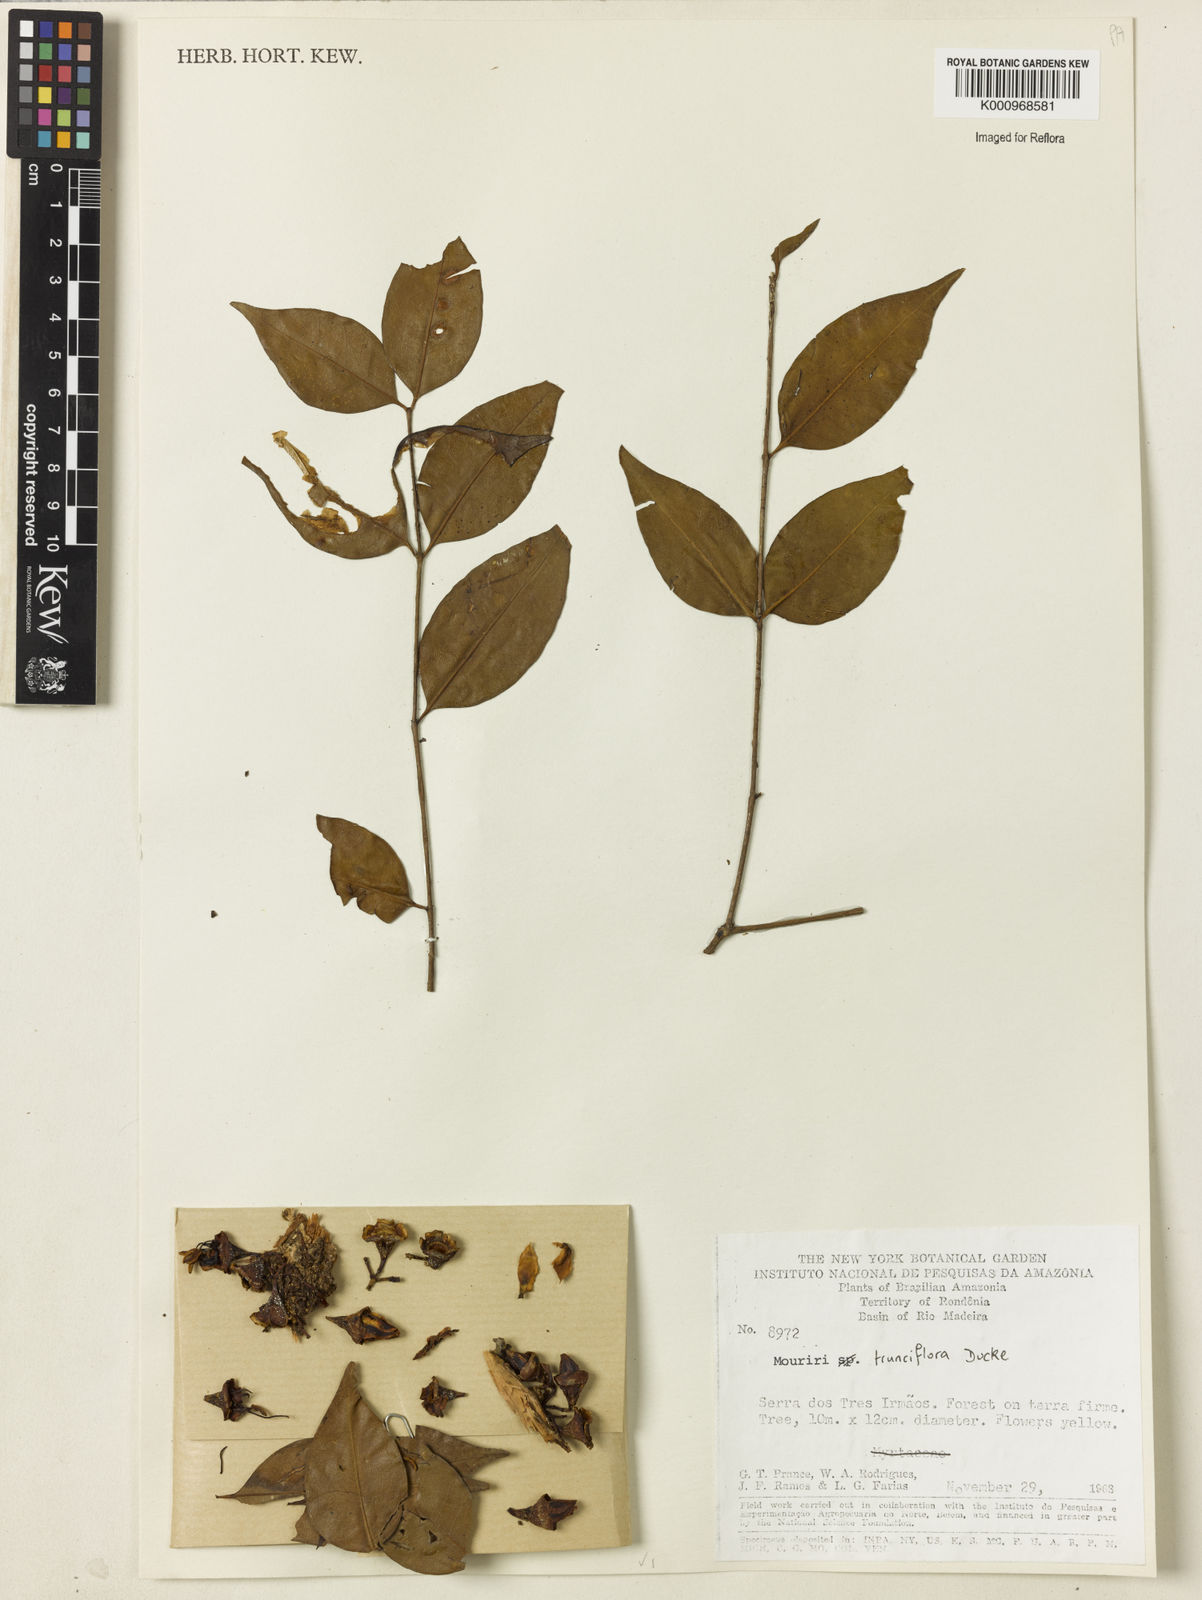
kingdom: Plantae
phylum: Tracheophyta
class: Magnoliopsida
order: Myrtales
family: Melastomataceae
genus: Mouriri
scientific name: Mouriri trunciflora
